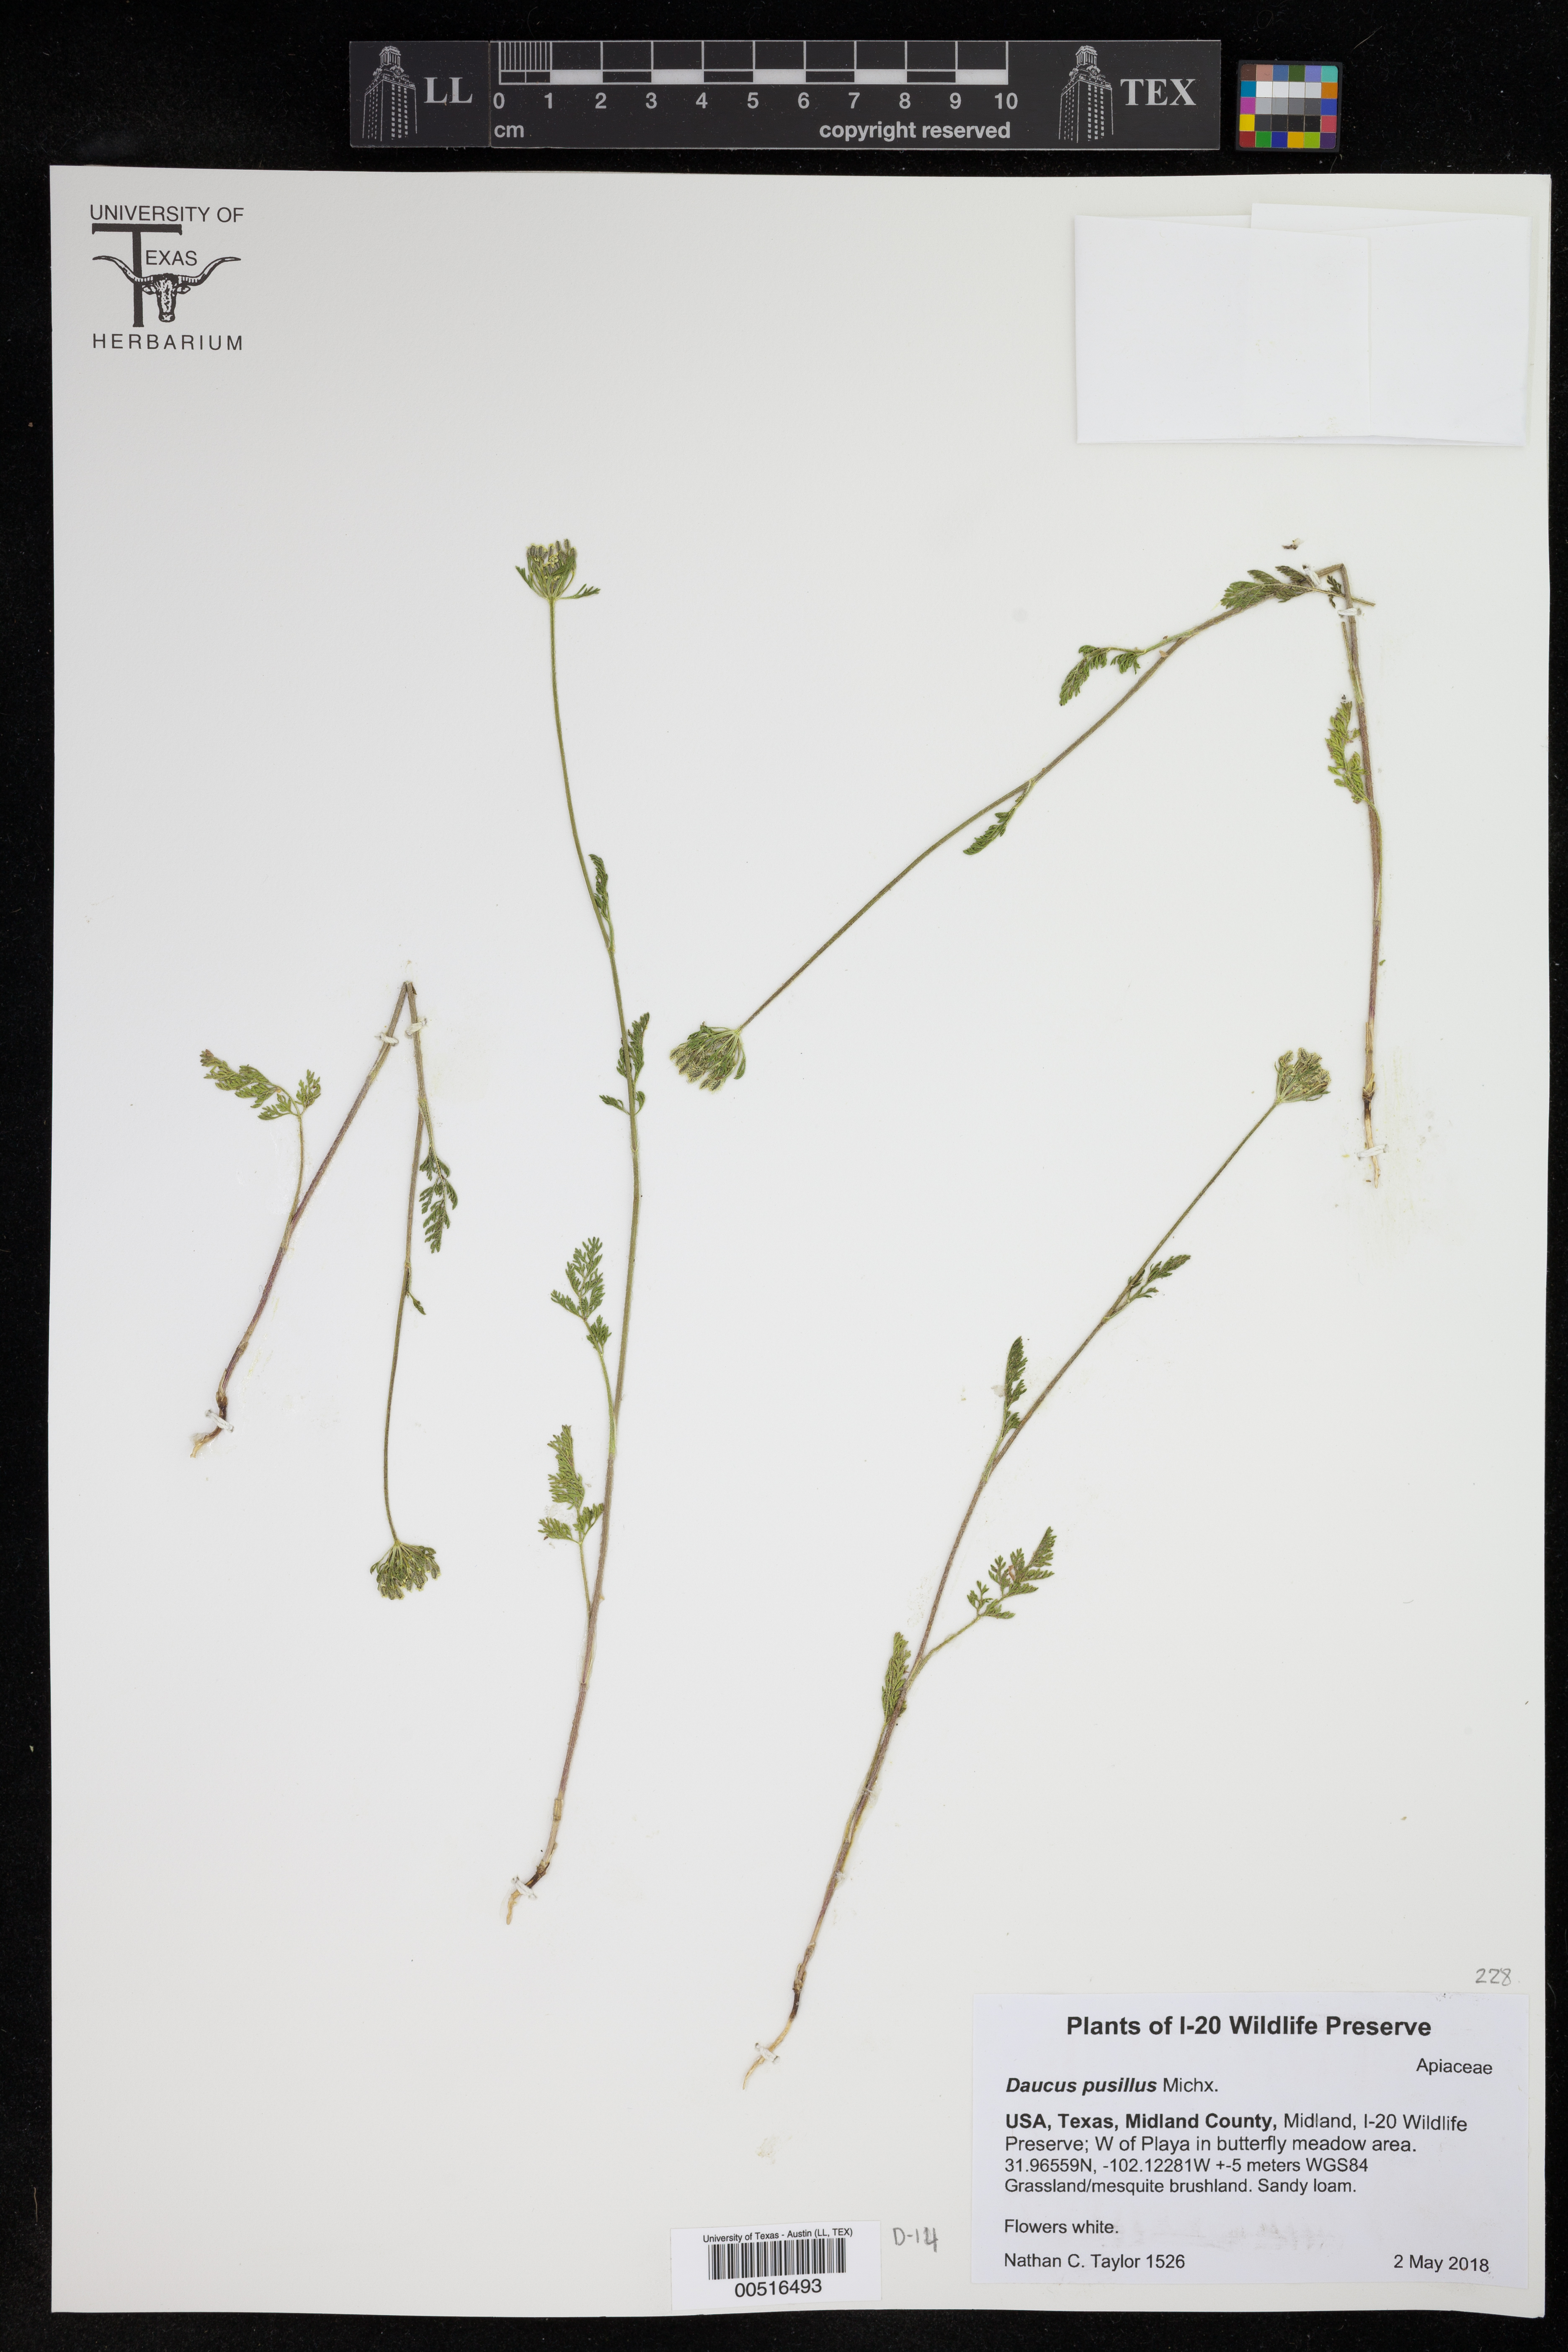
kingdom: Plantae
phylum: Tracheophyta
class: Magnoliopsida
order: Apiales
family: Apiaceae
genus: Daucus
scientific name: Daucus pusillus
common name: Southwest wild carrot
